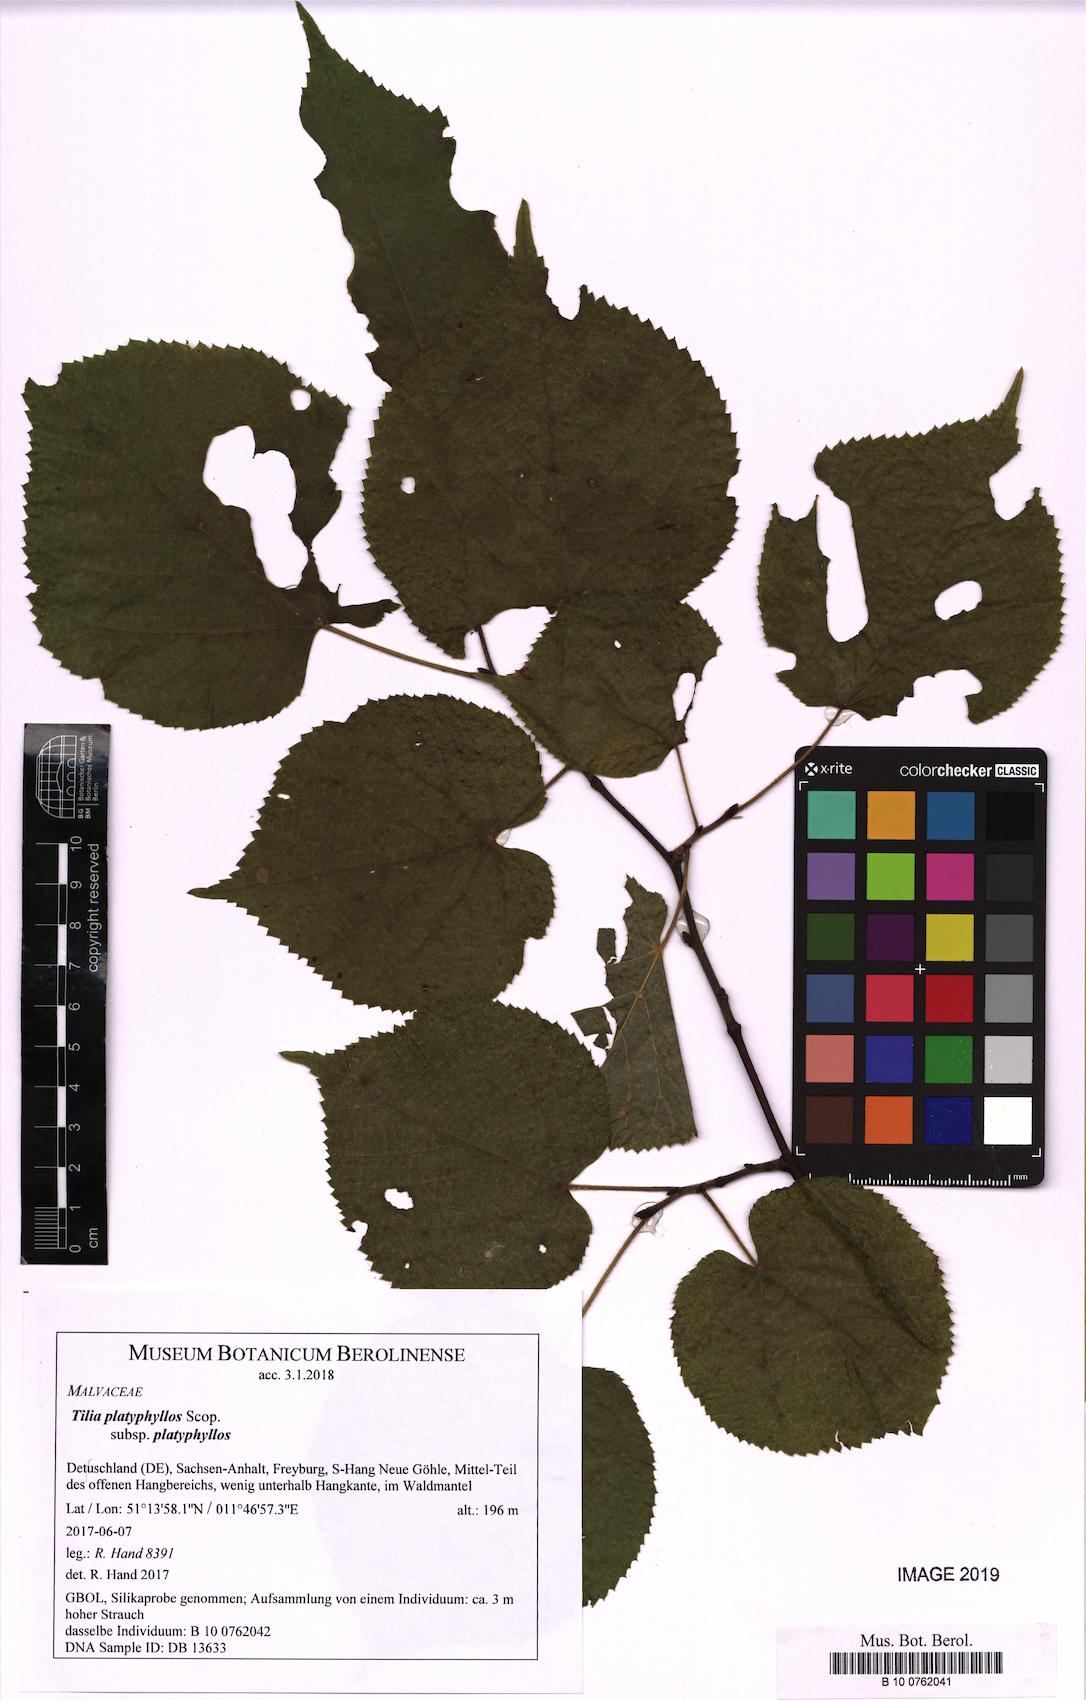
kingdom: Plantae
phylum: Tracheophyta
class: Magnoliopsida
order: Malvales
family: Malvaceae
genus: Tilia
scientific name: Tilia platyphyllos
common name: Large-leaved lime
